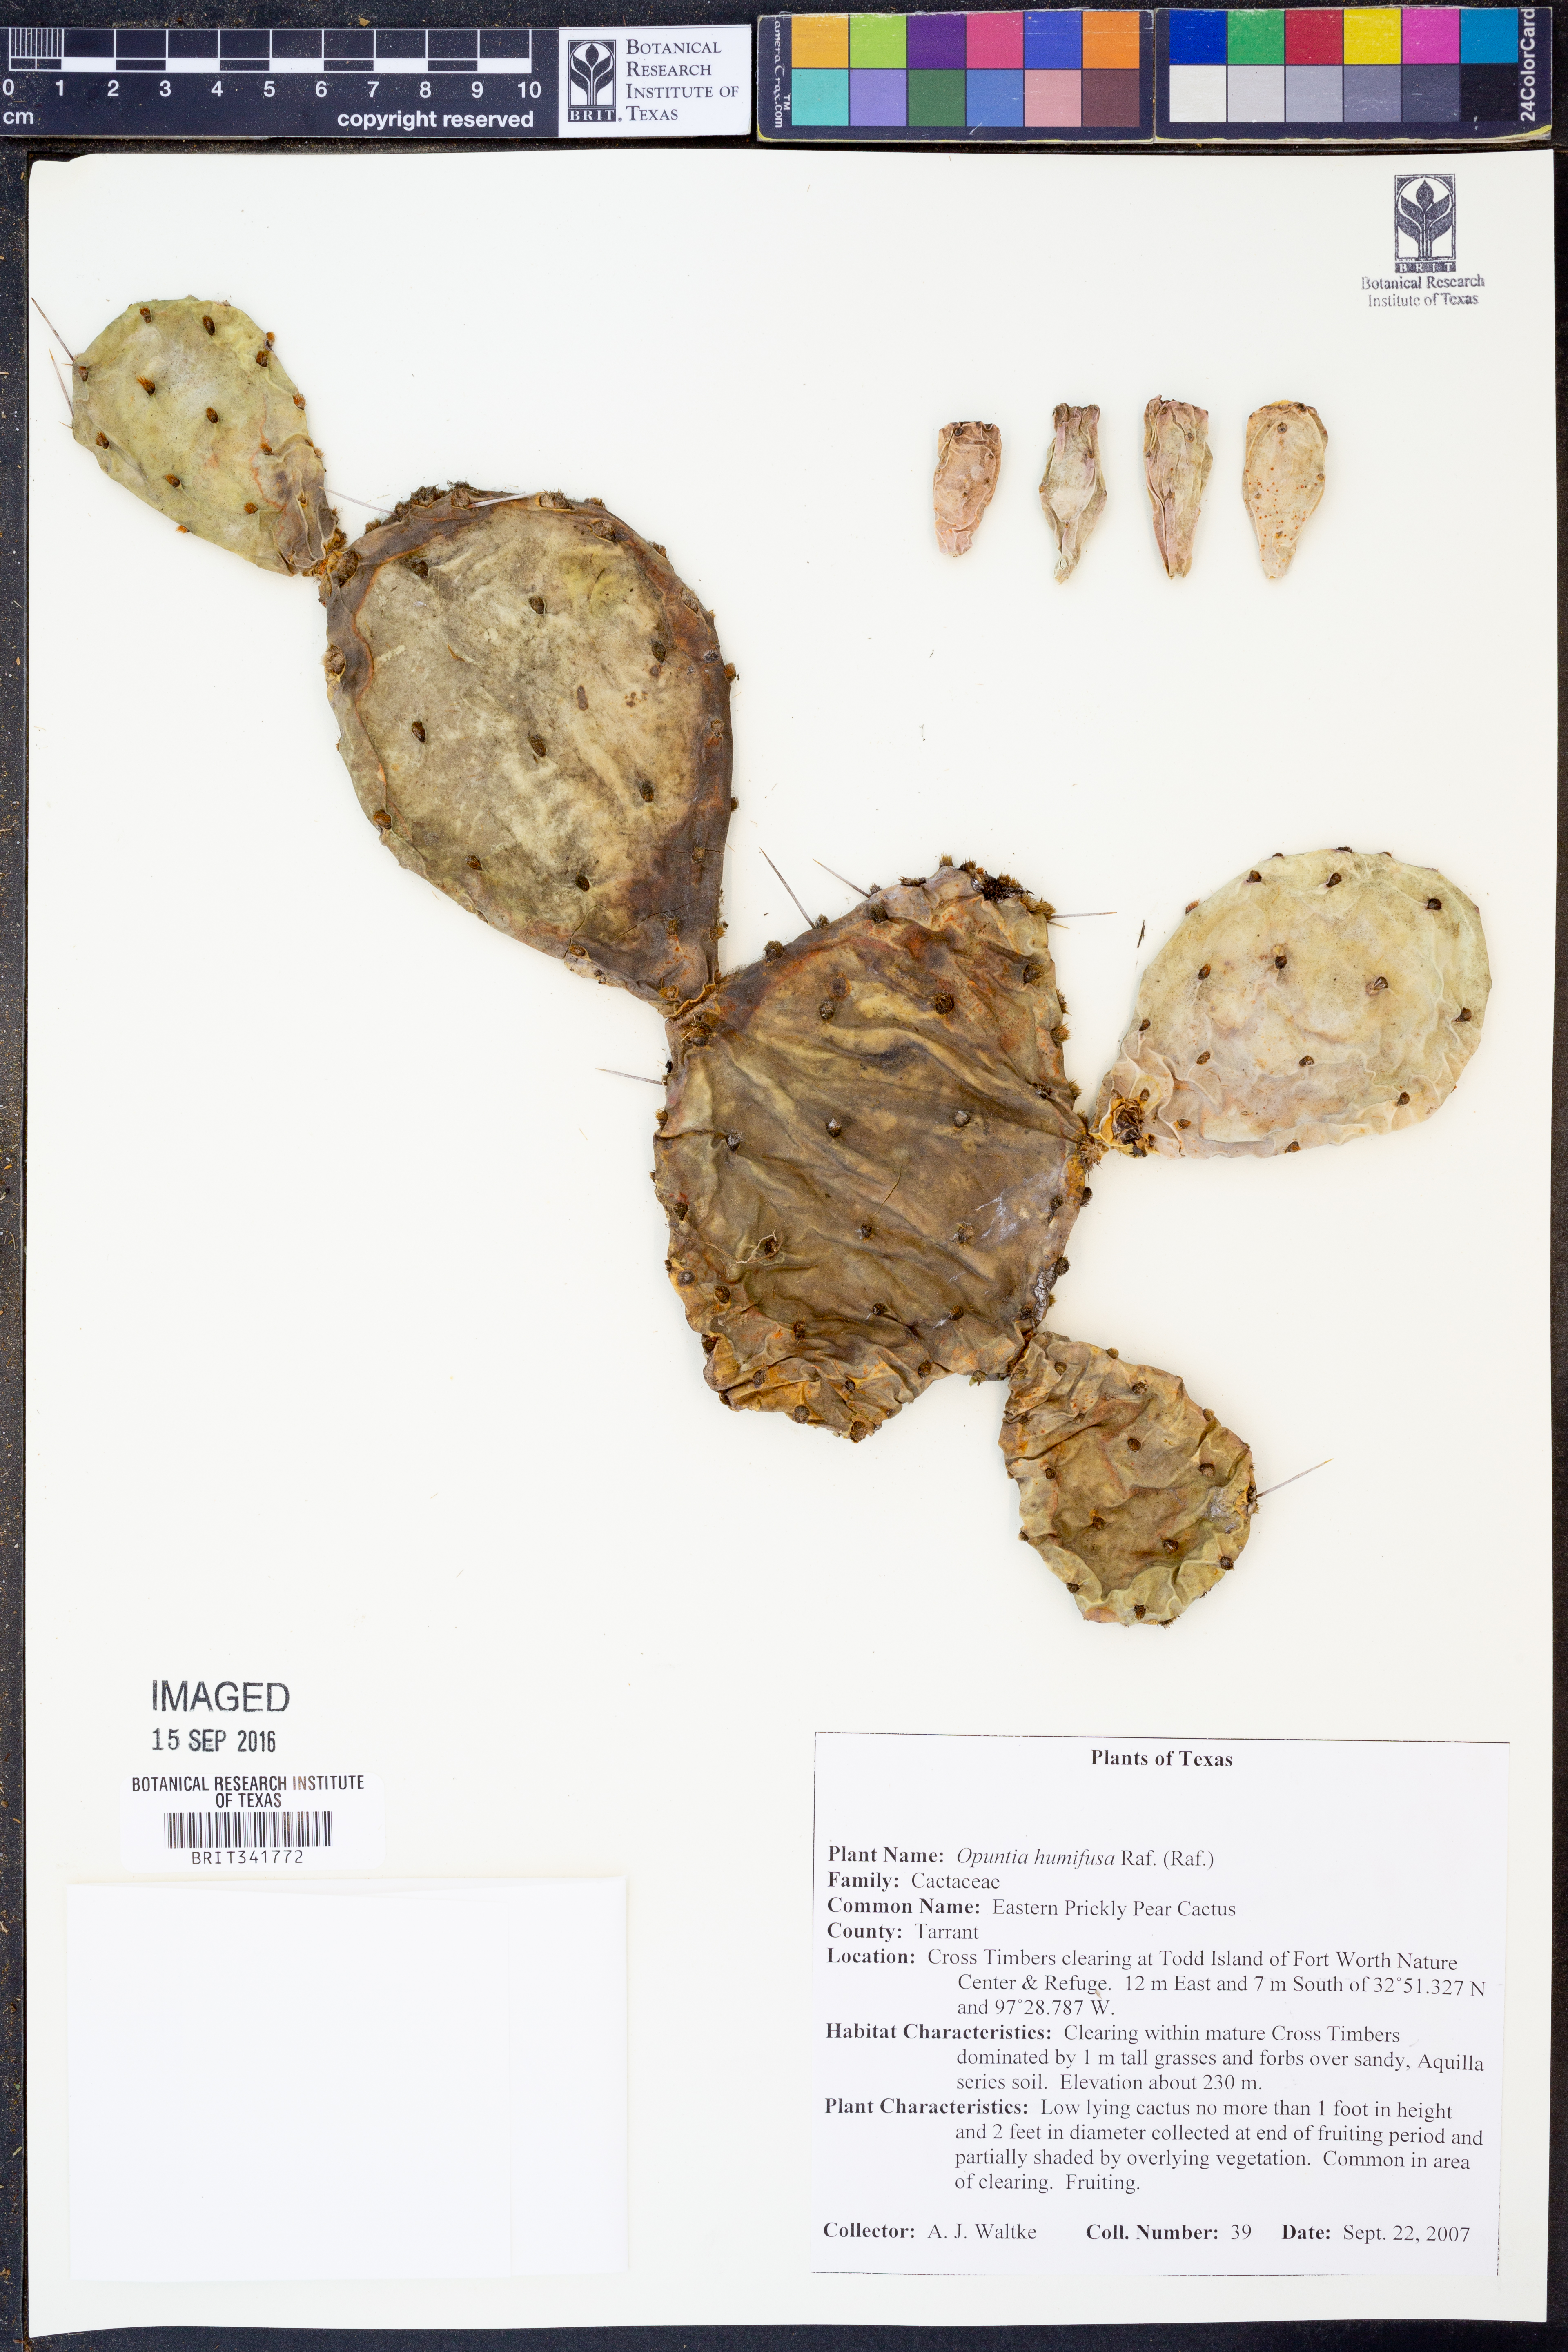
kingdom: Plantae
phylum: Tracheophyta
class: Magnoliopsida
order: Caryophyllales
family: Cactaceae
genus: Opuntia
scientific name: Opuntia humifusa
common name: Eastern prickly-pear
